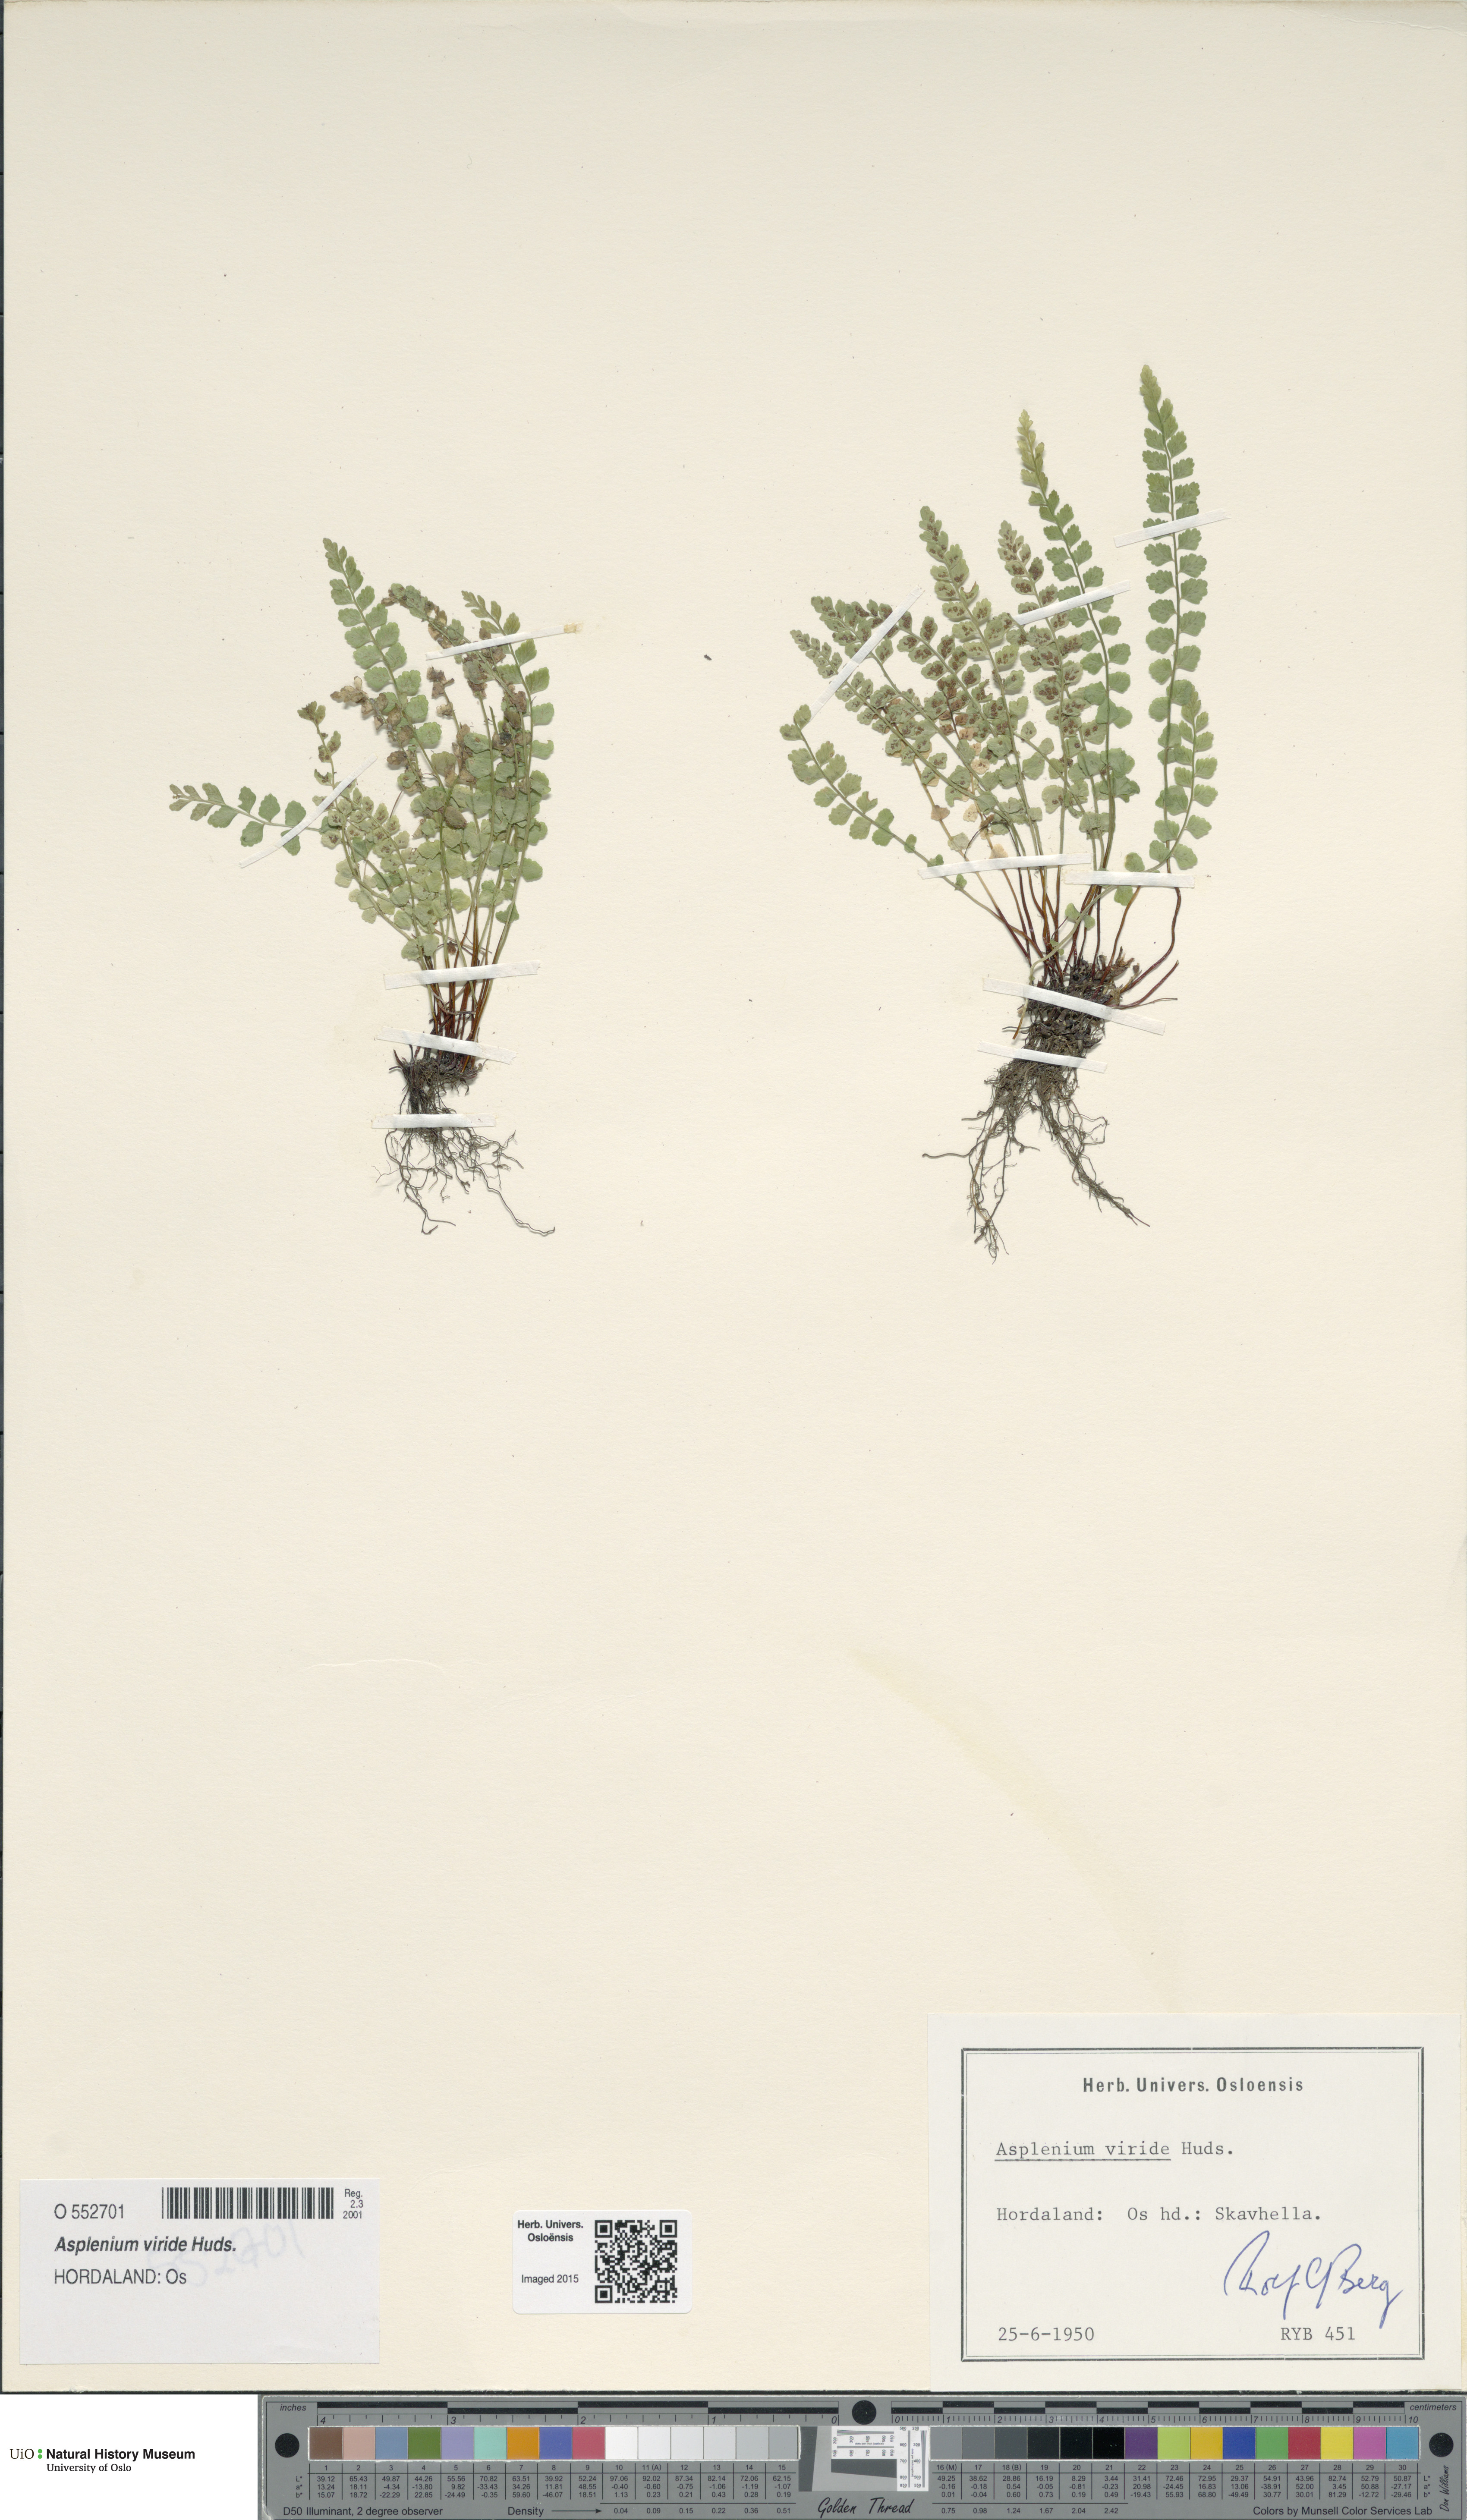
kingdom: Plantae
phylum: Tracheophyta
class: Polypodiopsida
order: Polypodiales
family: Aspleniaceae
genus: Asplenium
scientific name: Asplenium viride
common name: Green spleenwort
